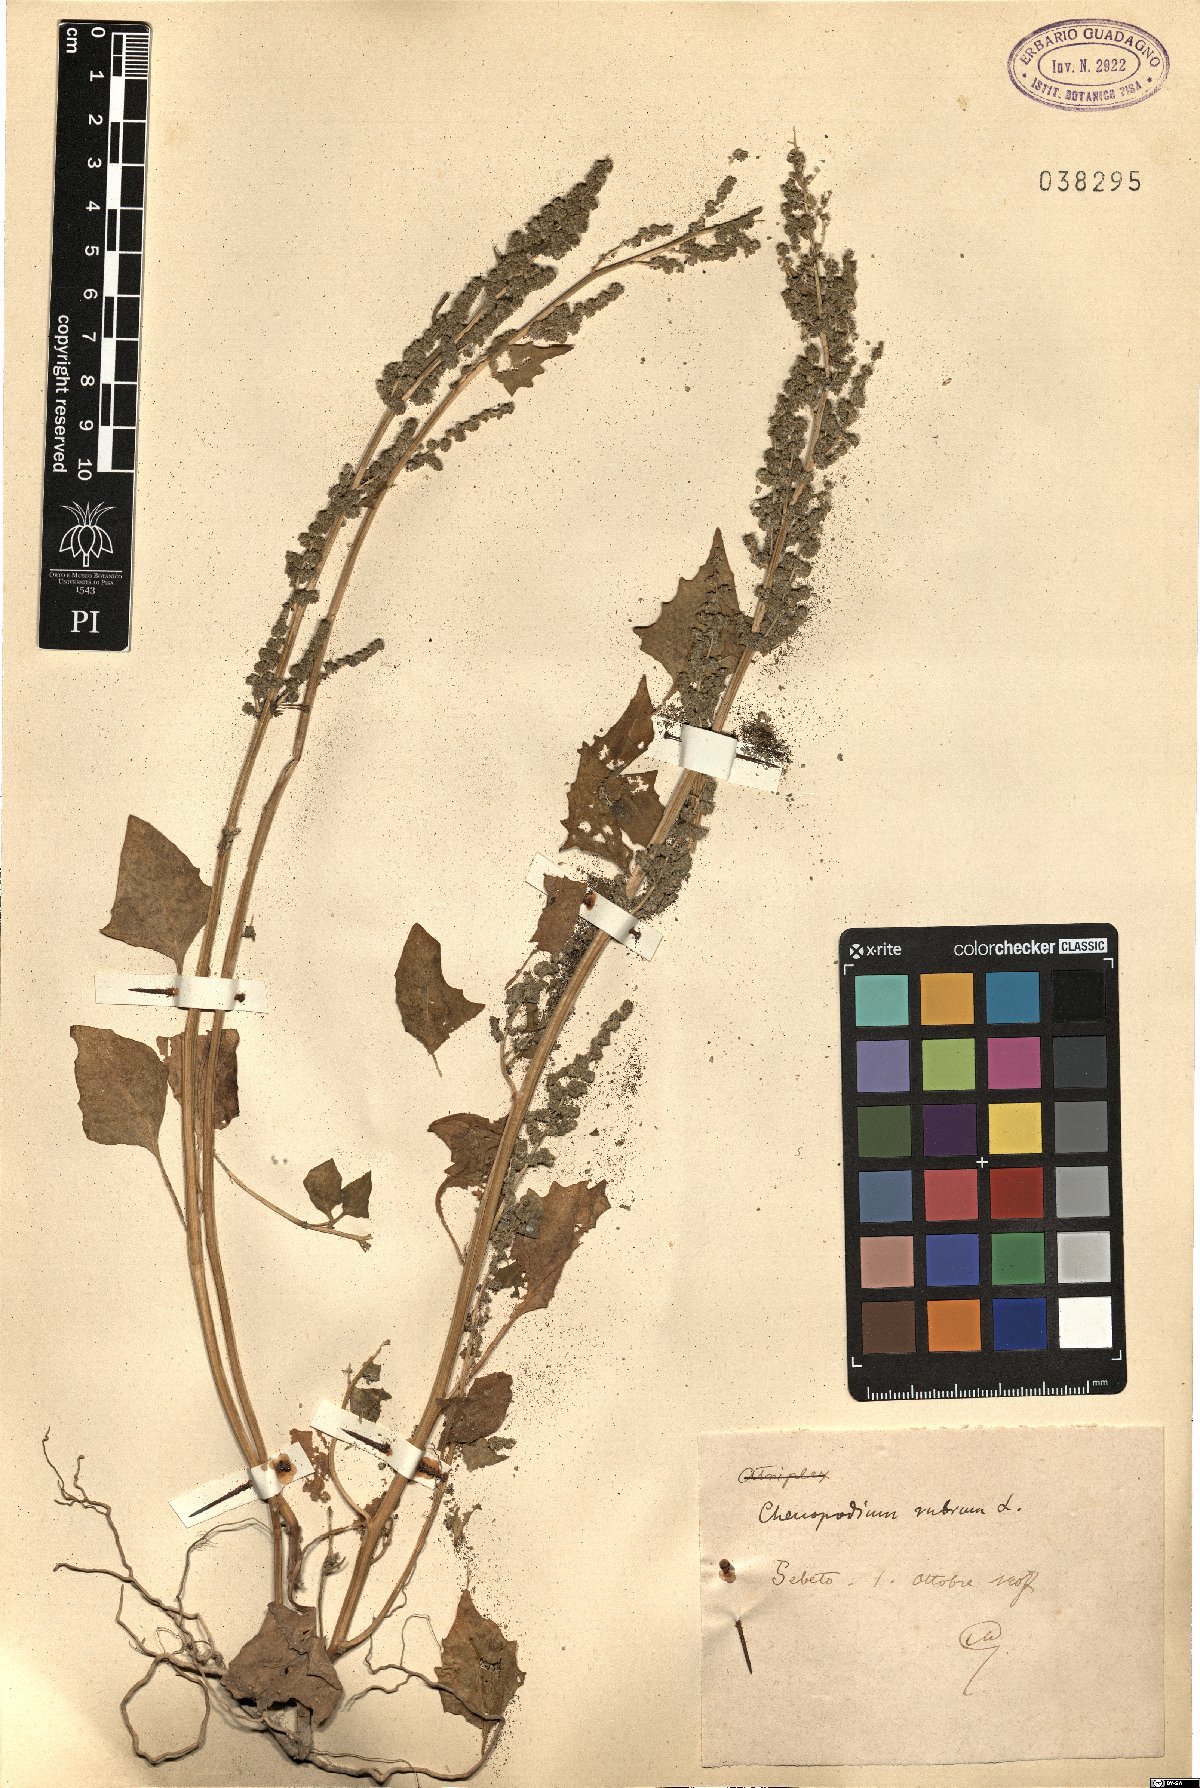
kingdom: Plantae
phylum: Tracheophyta
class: Magnoliopsida
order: Caryophyllales
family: Amaranthaceae
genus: Oxybasis
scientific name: Oxybasis rubra
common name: Red goosefoot
